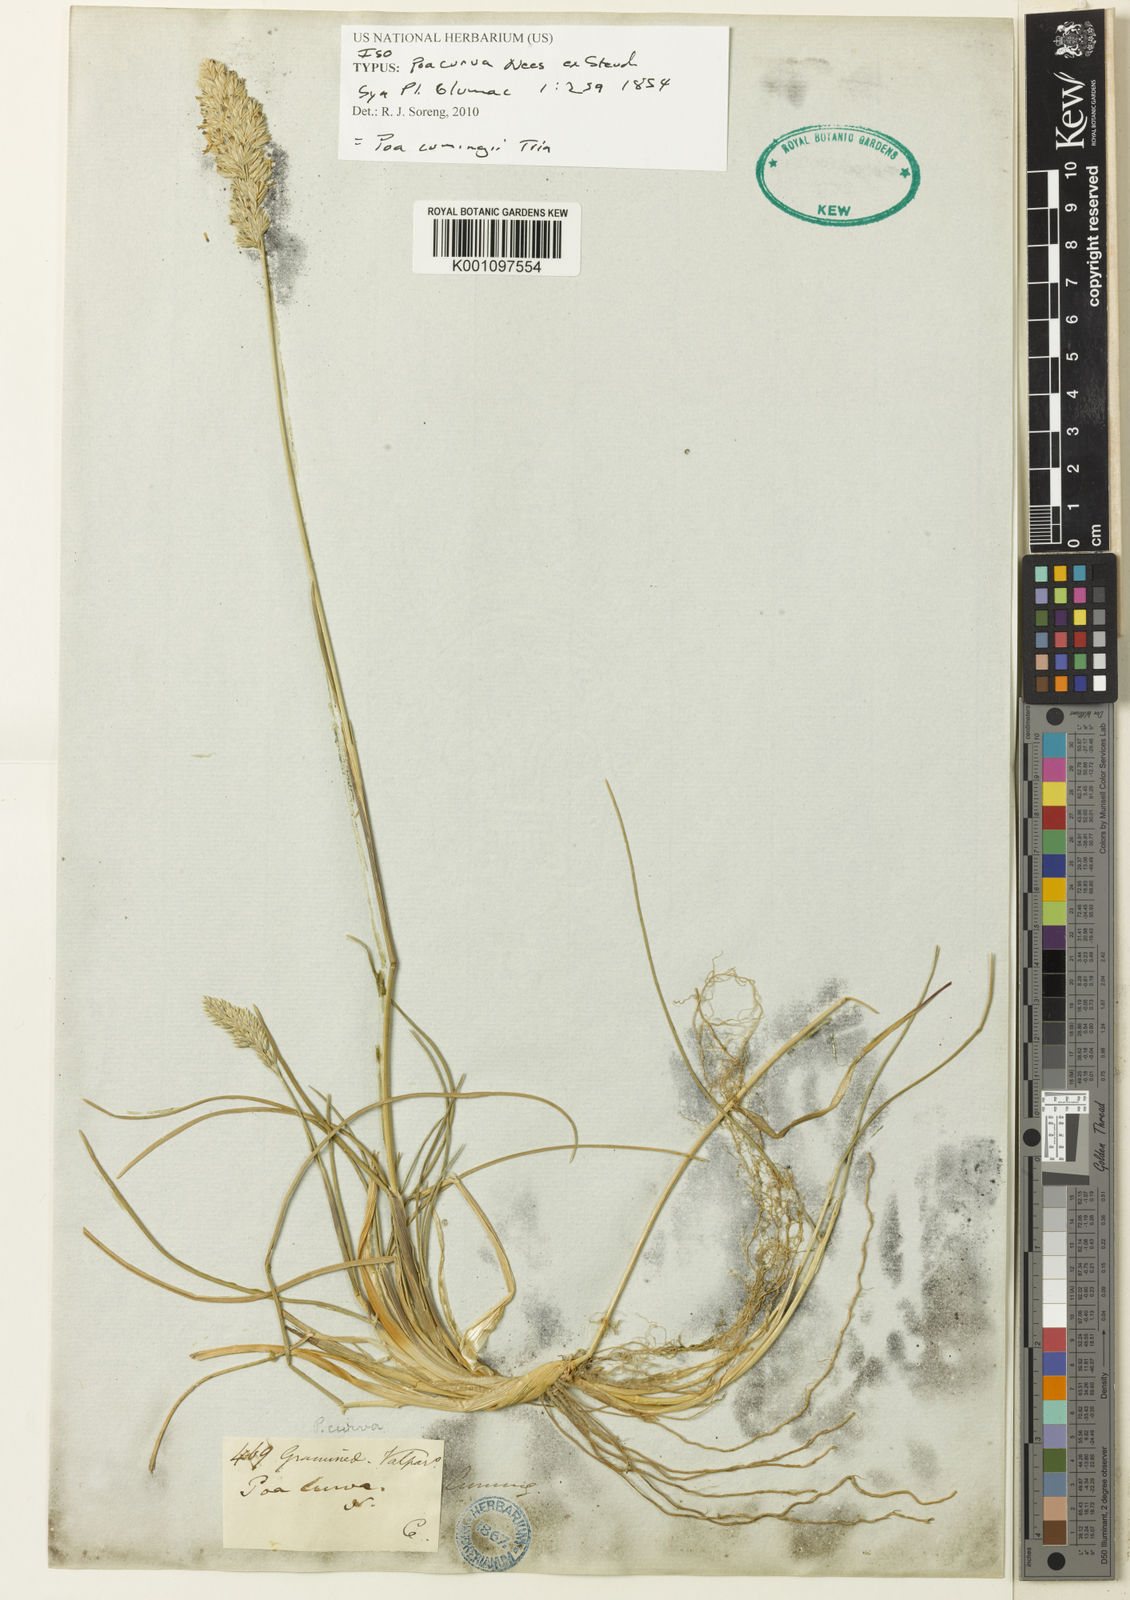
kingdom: Plantae
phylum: Tracheophyta
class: Liliopsida
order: Poales
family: Poaceae
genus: Poa
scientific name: Poa obvallata
